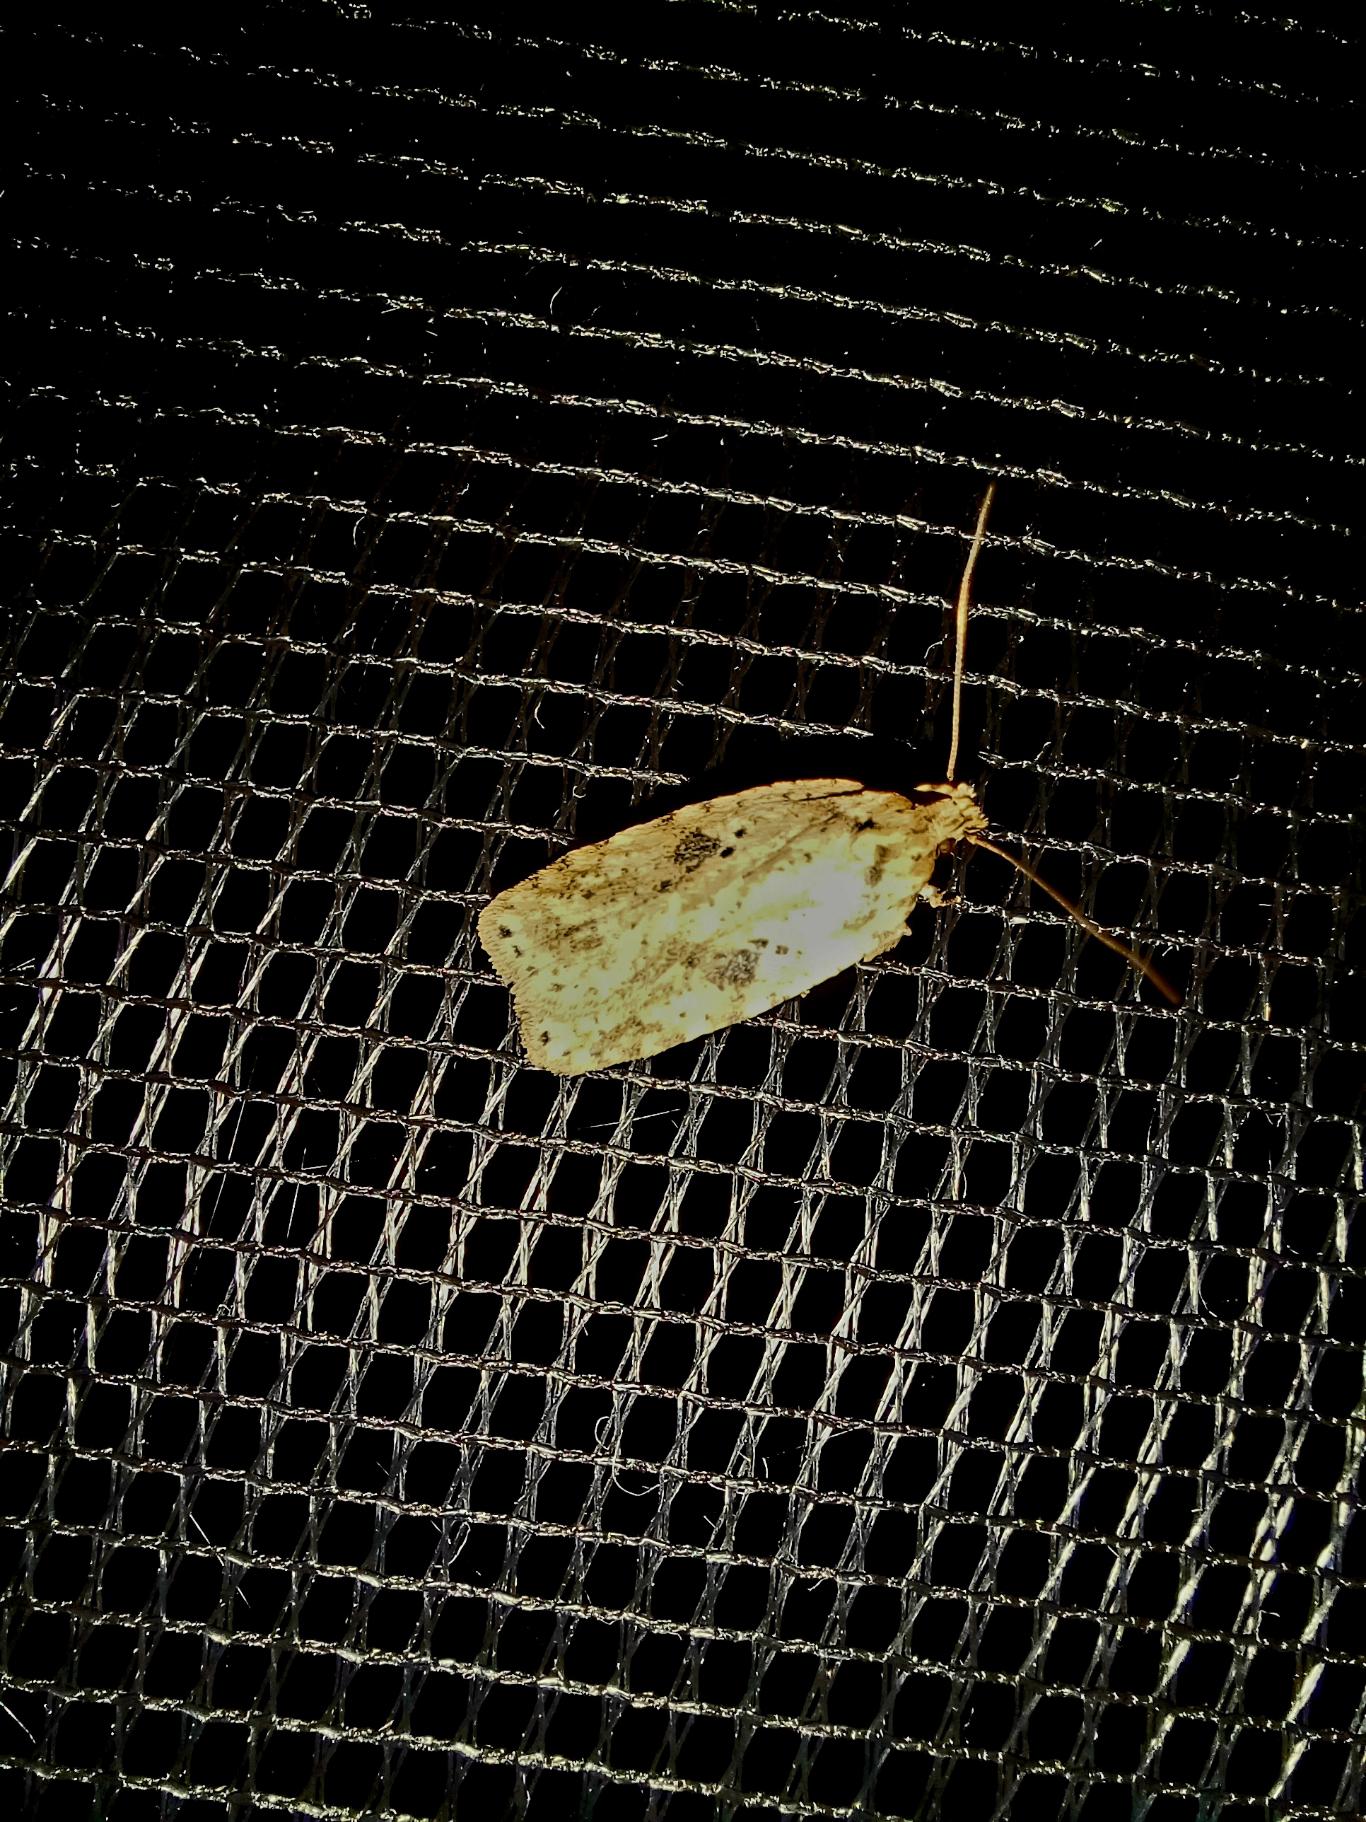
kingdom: Animalia
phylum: Arthropoda
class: Insecta
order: Lepidoptera
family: Depressariidae
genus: Agonopterix
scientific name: Agonopterix arenella
